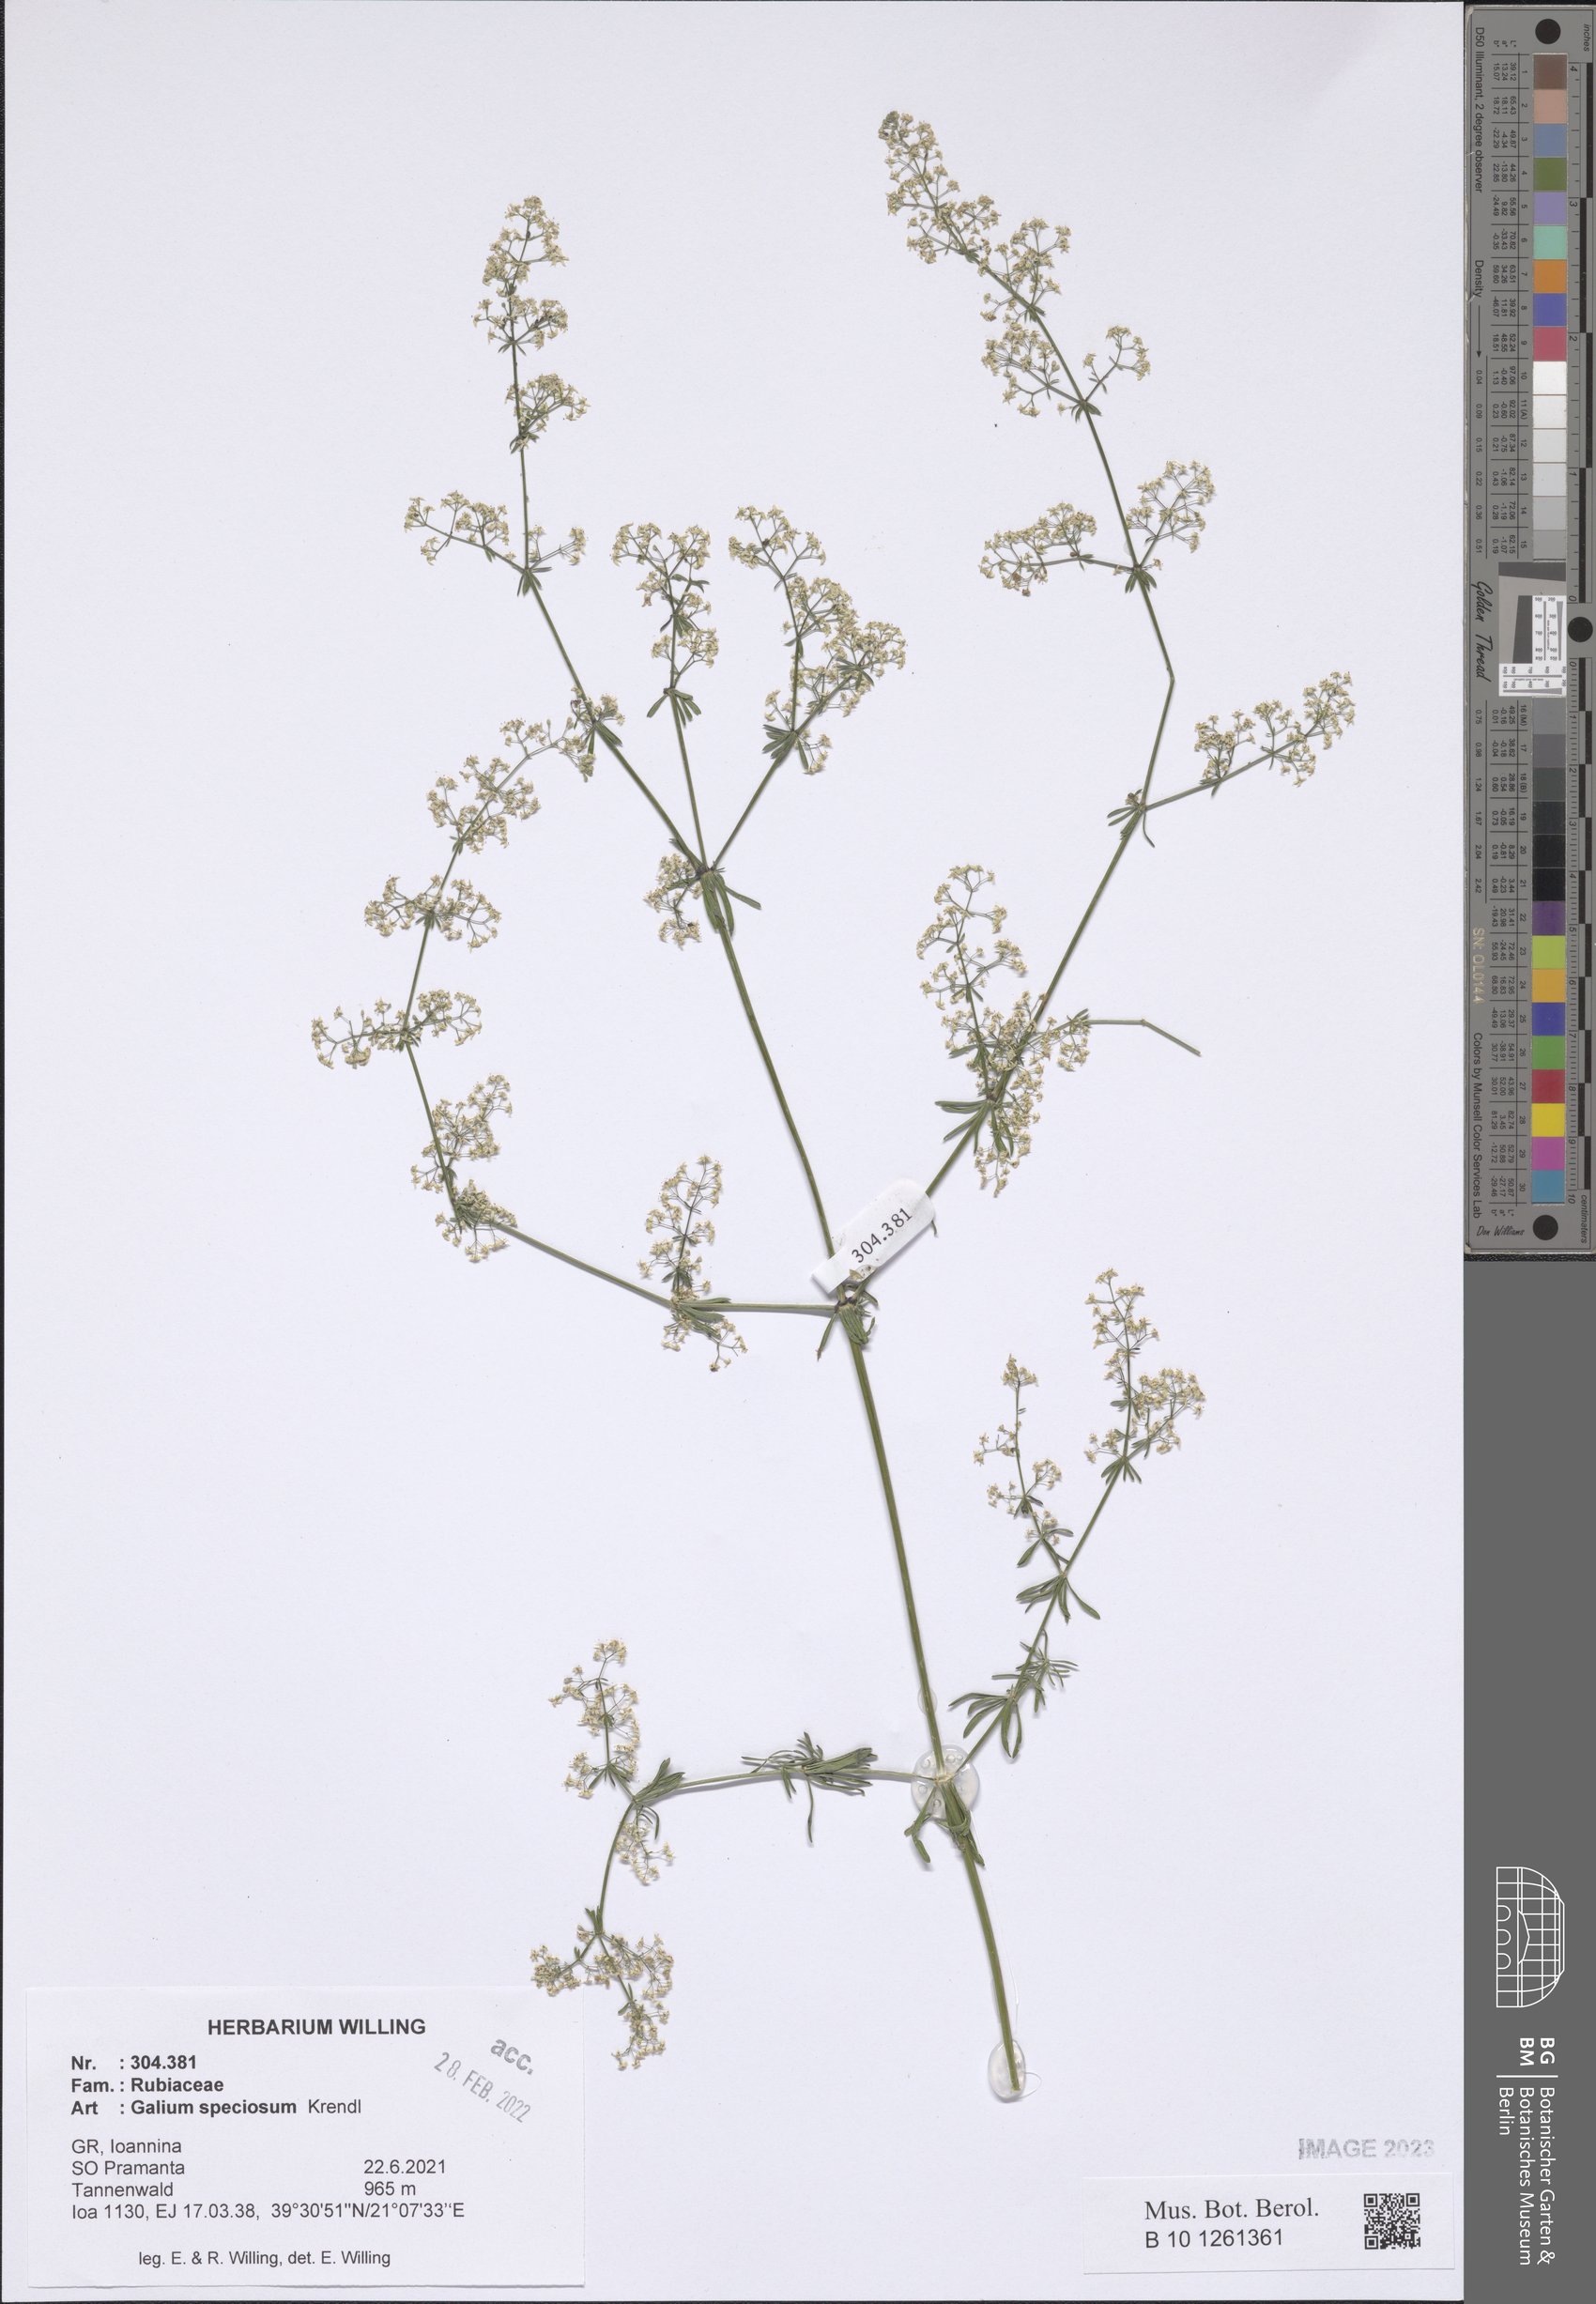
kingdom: Plantae
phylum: Tracheophyta
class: Magnoliopsida
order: Gentianales
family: Rubiaceae
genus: Galium
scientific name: Galium speciosum
